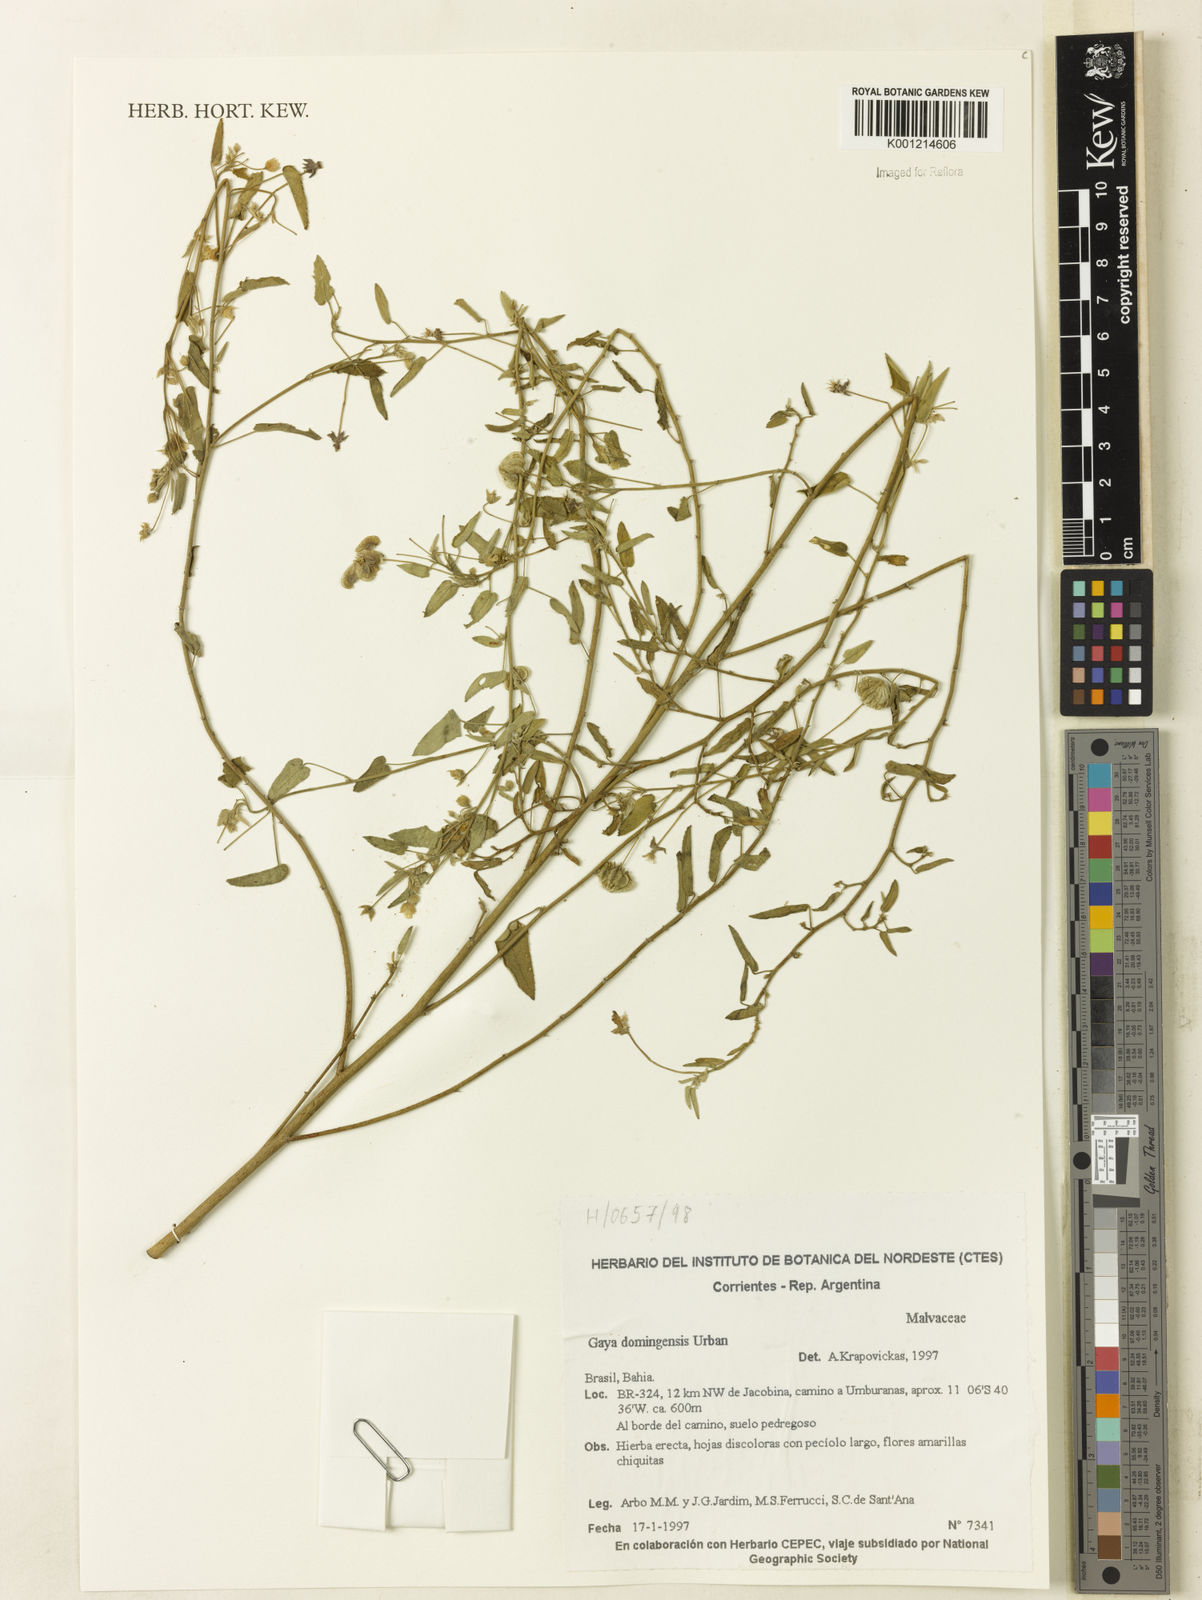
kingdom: Plantae
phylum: Tracheophyta
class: Magnoliopsida
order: Malvales
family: Malvaceae
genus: Gaya
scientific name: Gaya domingensis
